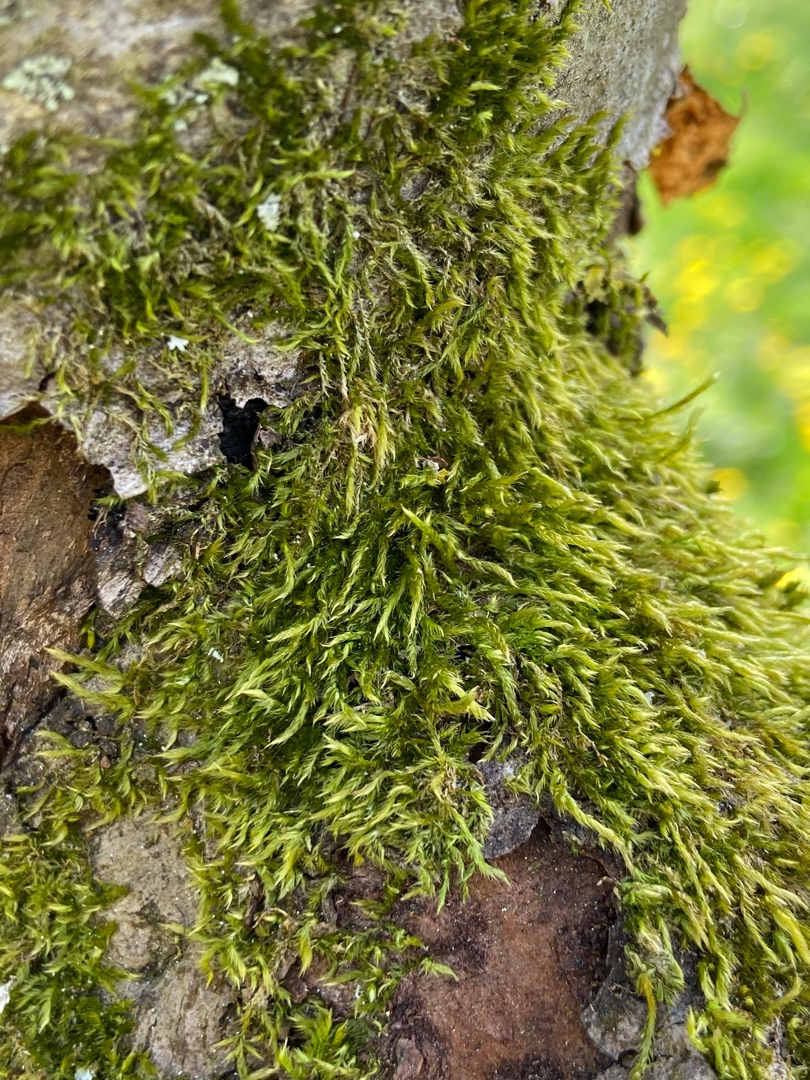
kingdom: Plantae
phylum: Bryophyta
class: Bryopsida
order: Hypnales
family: Hypnaceae
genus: Hypnum
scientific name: Hypnum
